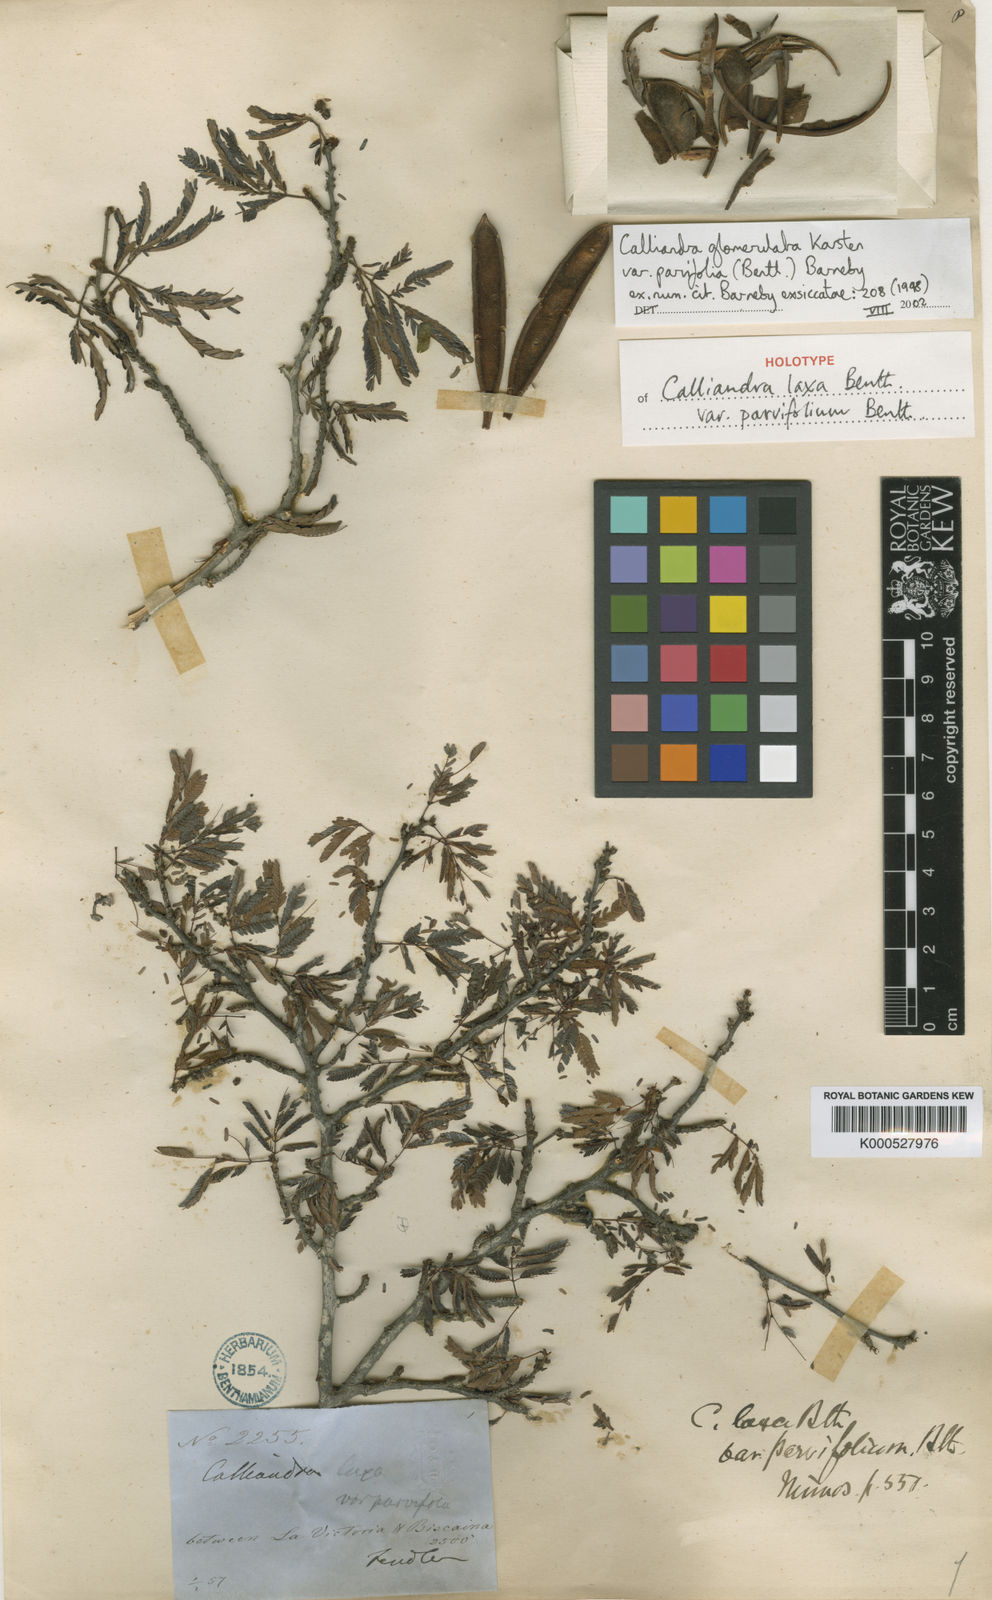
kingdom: Plantae
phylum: Tracheophyta
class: Magnoliopsida
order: Fabales
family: Fabaceae
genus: Calliandra
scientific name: Calliandra glomerulata
